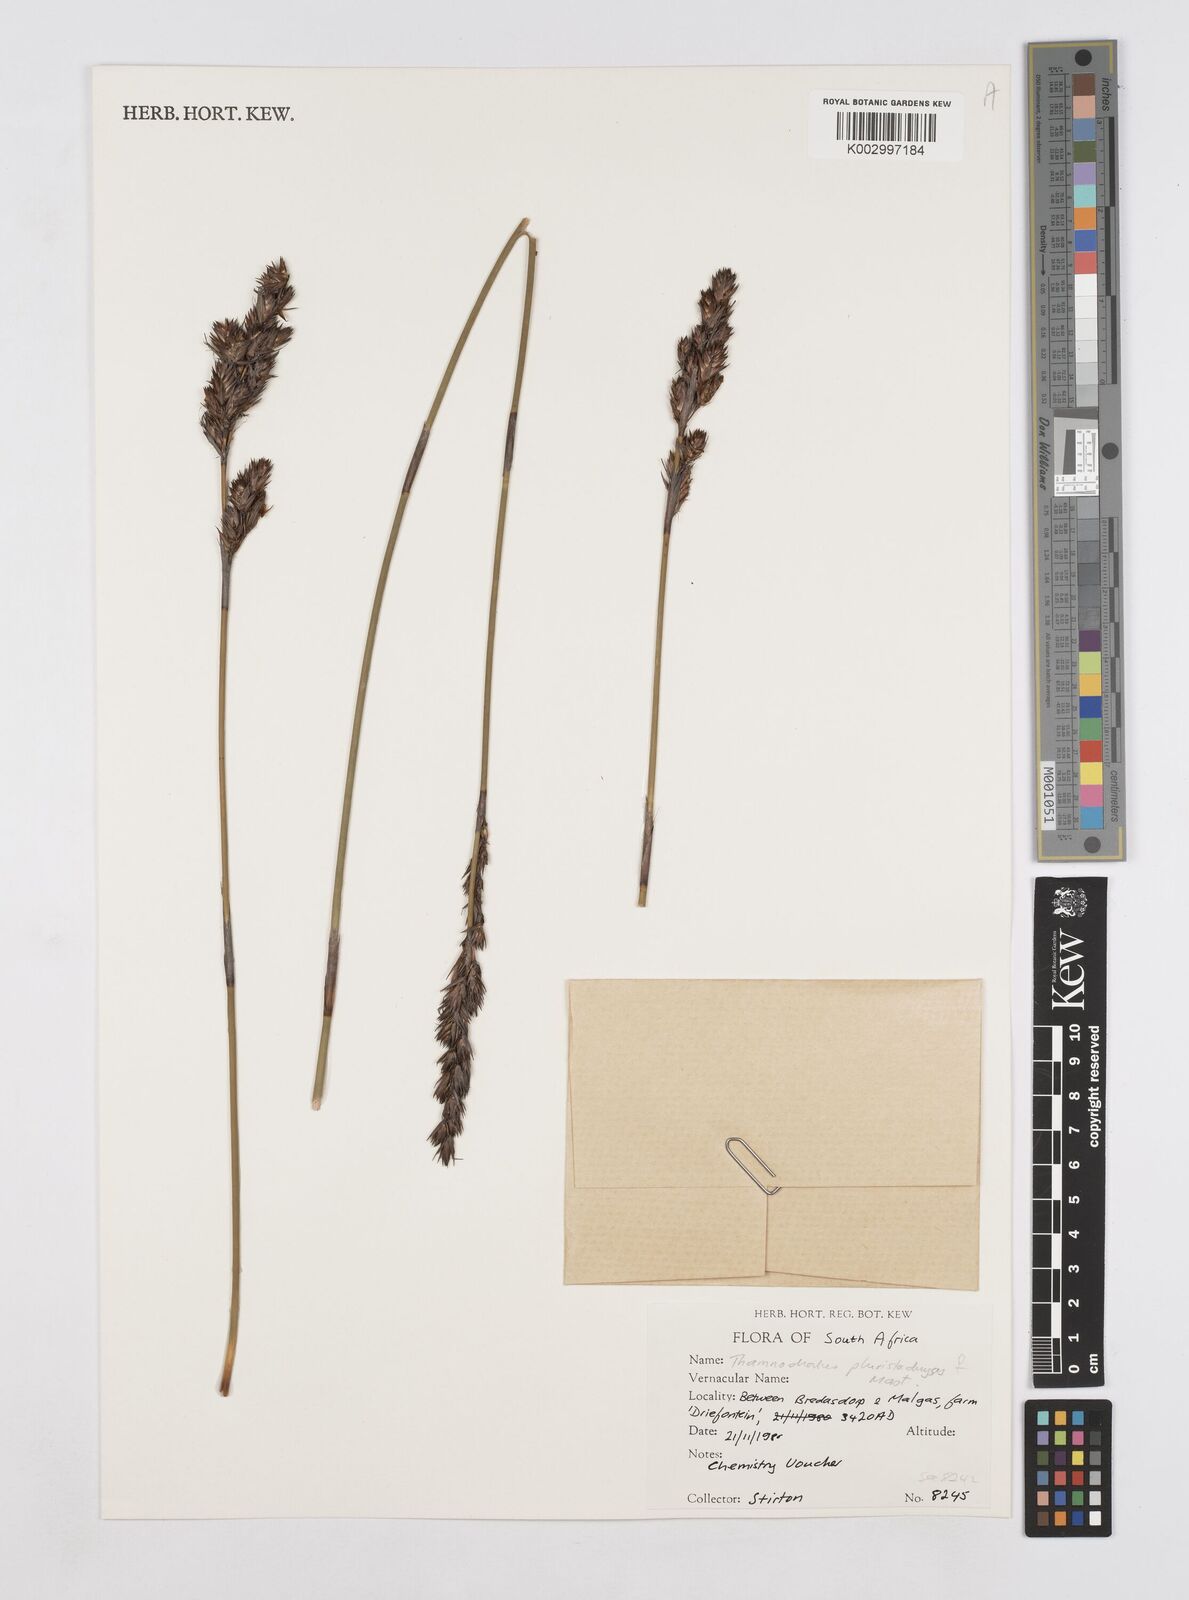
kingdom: Plantae
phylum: Tracheophyta
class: Liliopsida
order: Poales
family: Restionaceae
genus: Thamnochortus
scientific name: Thamnochortus pluristachyus
